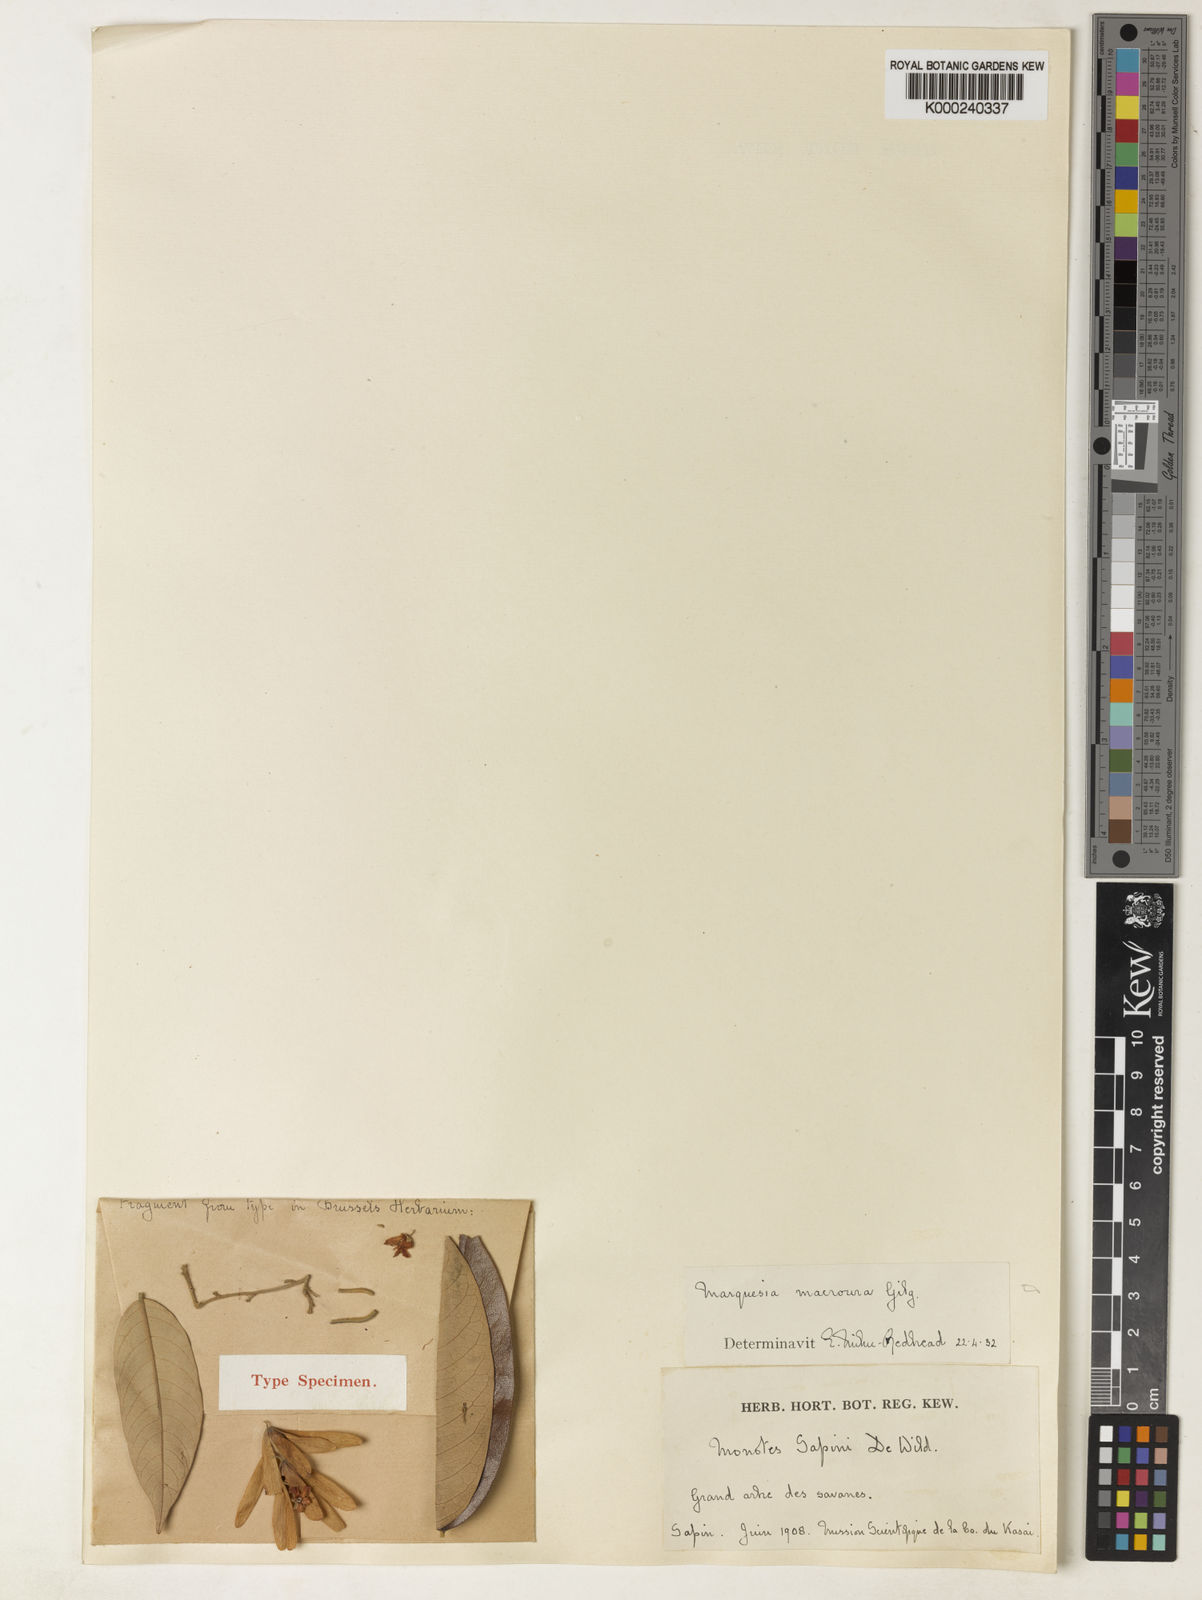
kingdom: Plantae
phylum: Tracheophyta
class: Magnoliopsida
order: Malvales
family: Dipterocarpaceae
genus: Marquesia
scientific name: Marquesia macroura
